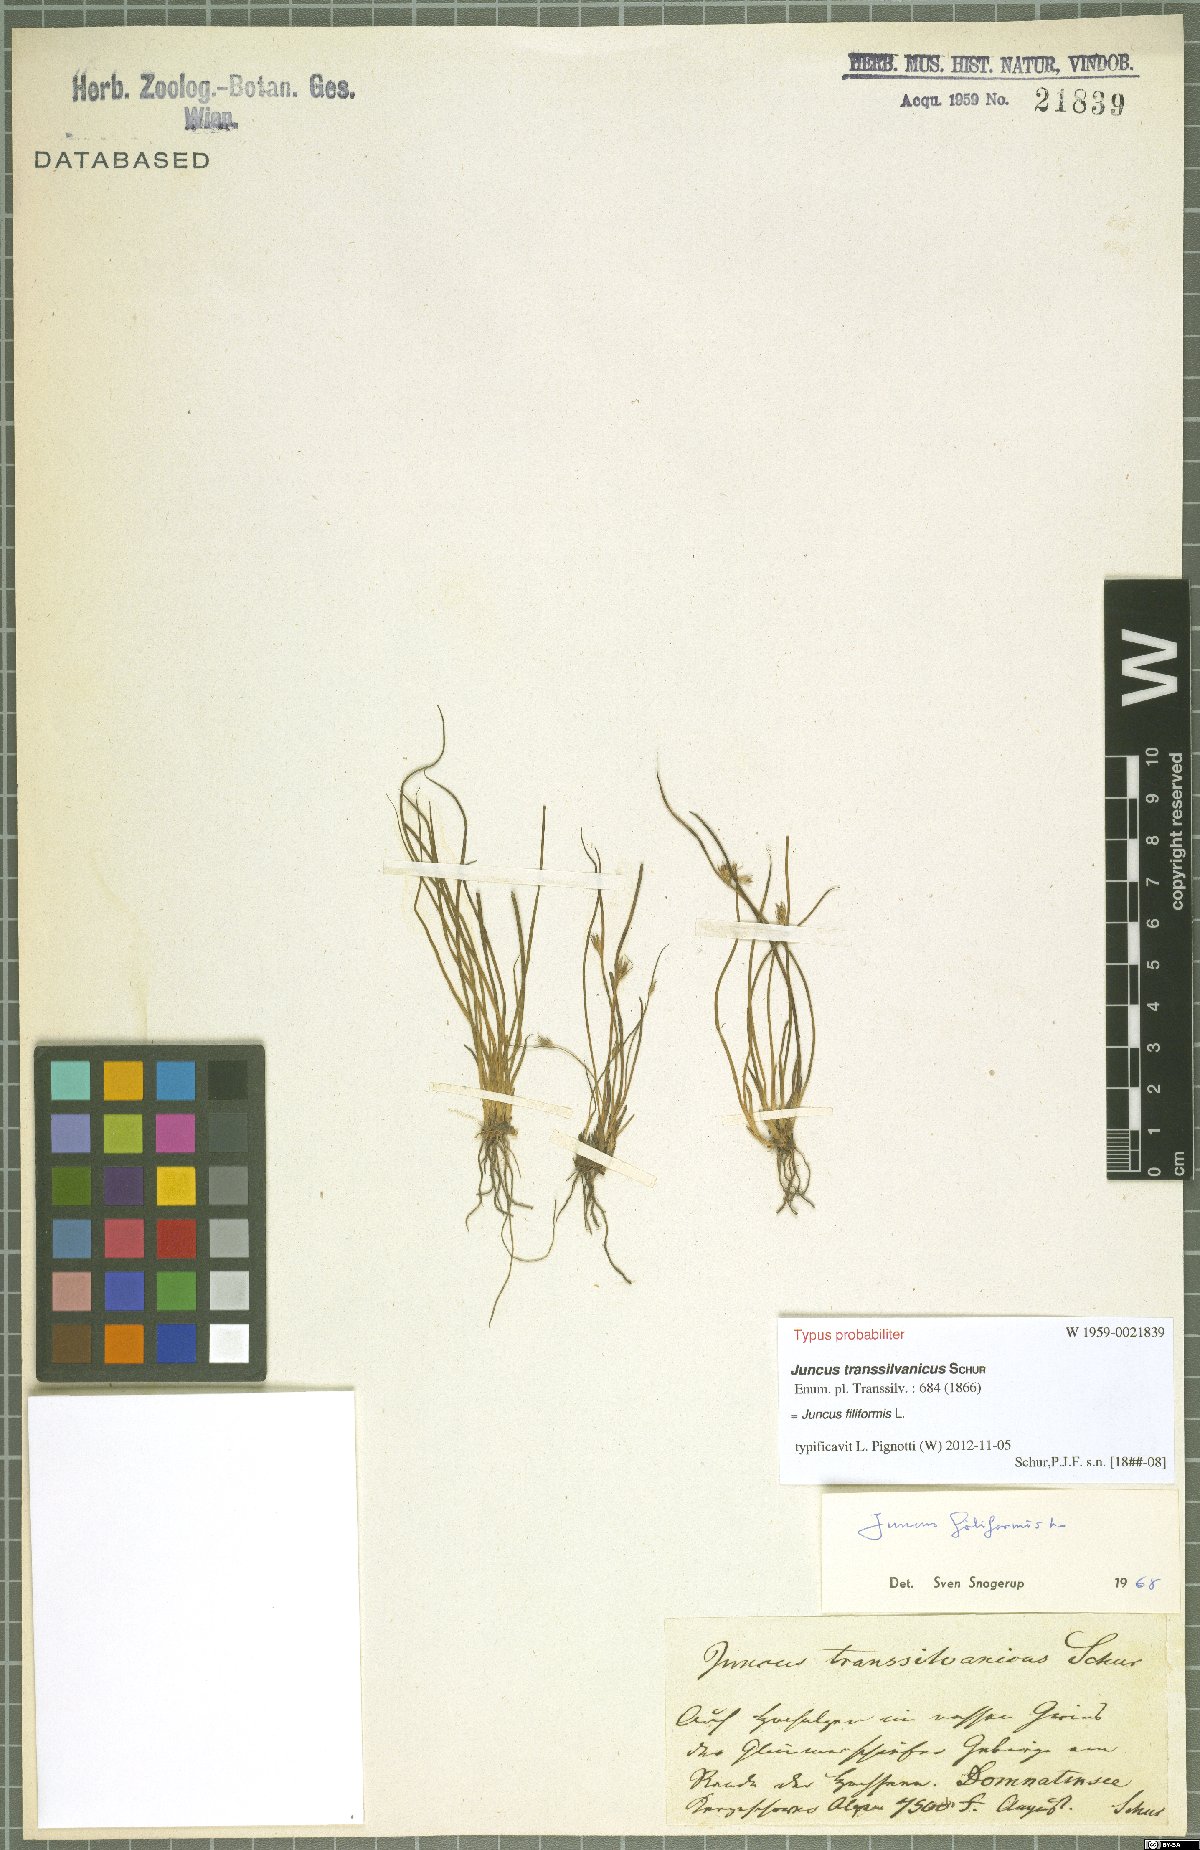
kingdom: Plantae
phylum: Tracheophyta
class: Liliopsida
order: Poales
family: Juncaceae
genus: Juncus
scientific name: Juncus filiformis
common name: Thread rush
